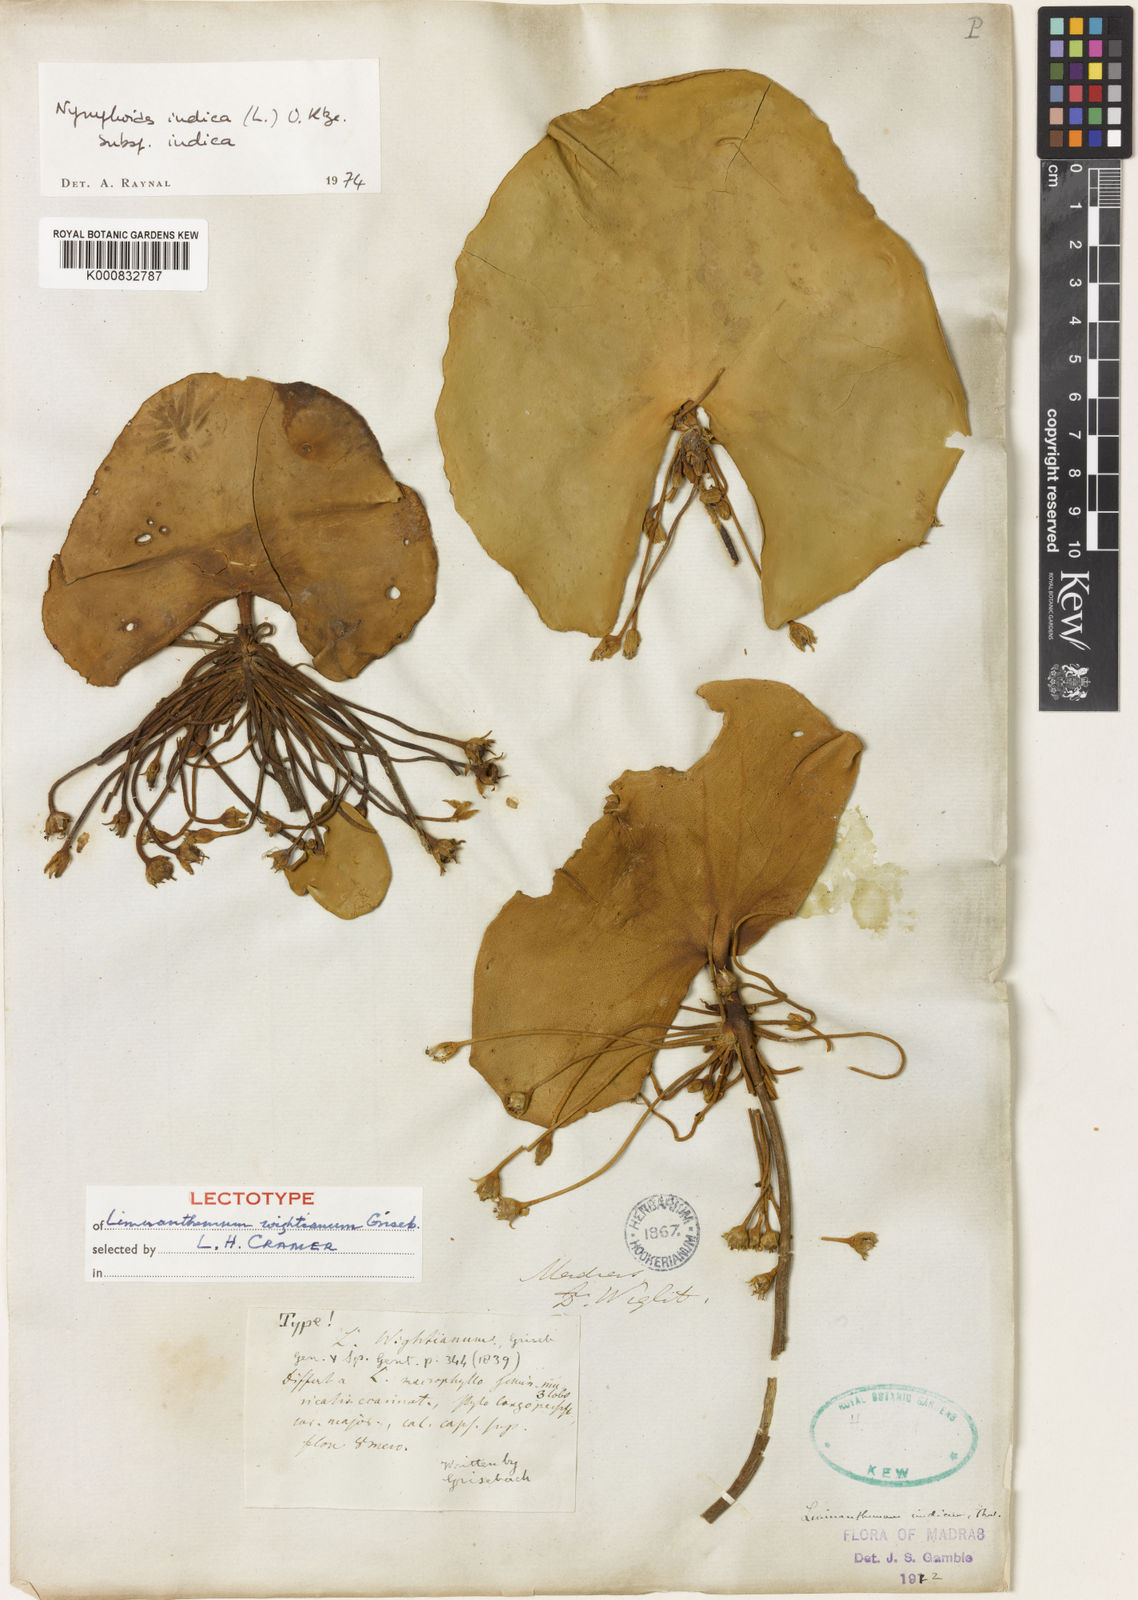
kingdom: Plantae
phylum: Tracheophyta
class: Magnoliopsida
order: Asterales
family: Menyanthaceae
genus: Nymphoides
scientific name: Nymphoides indica
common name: Water-snowflake
